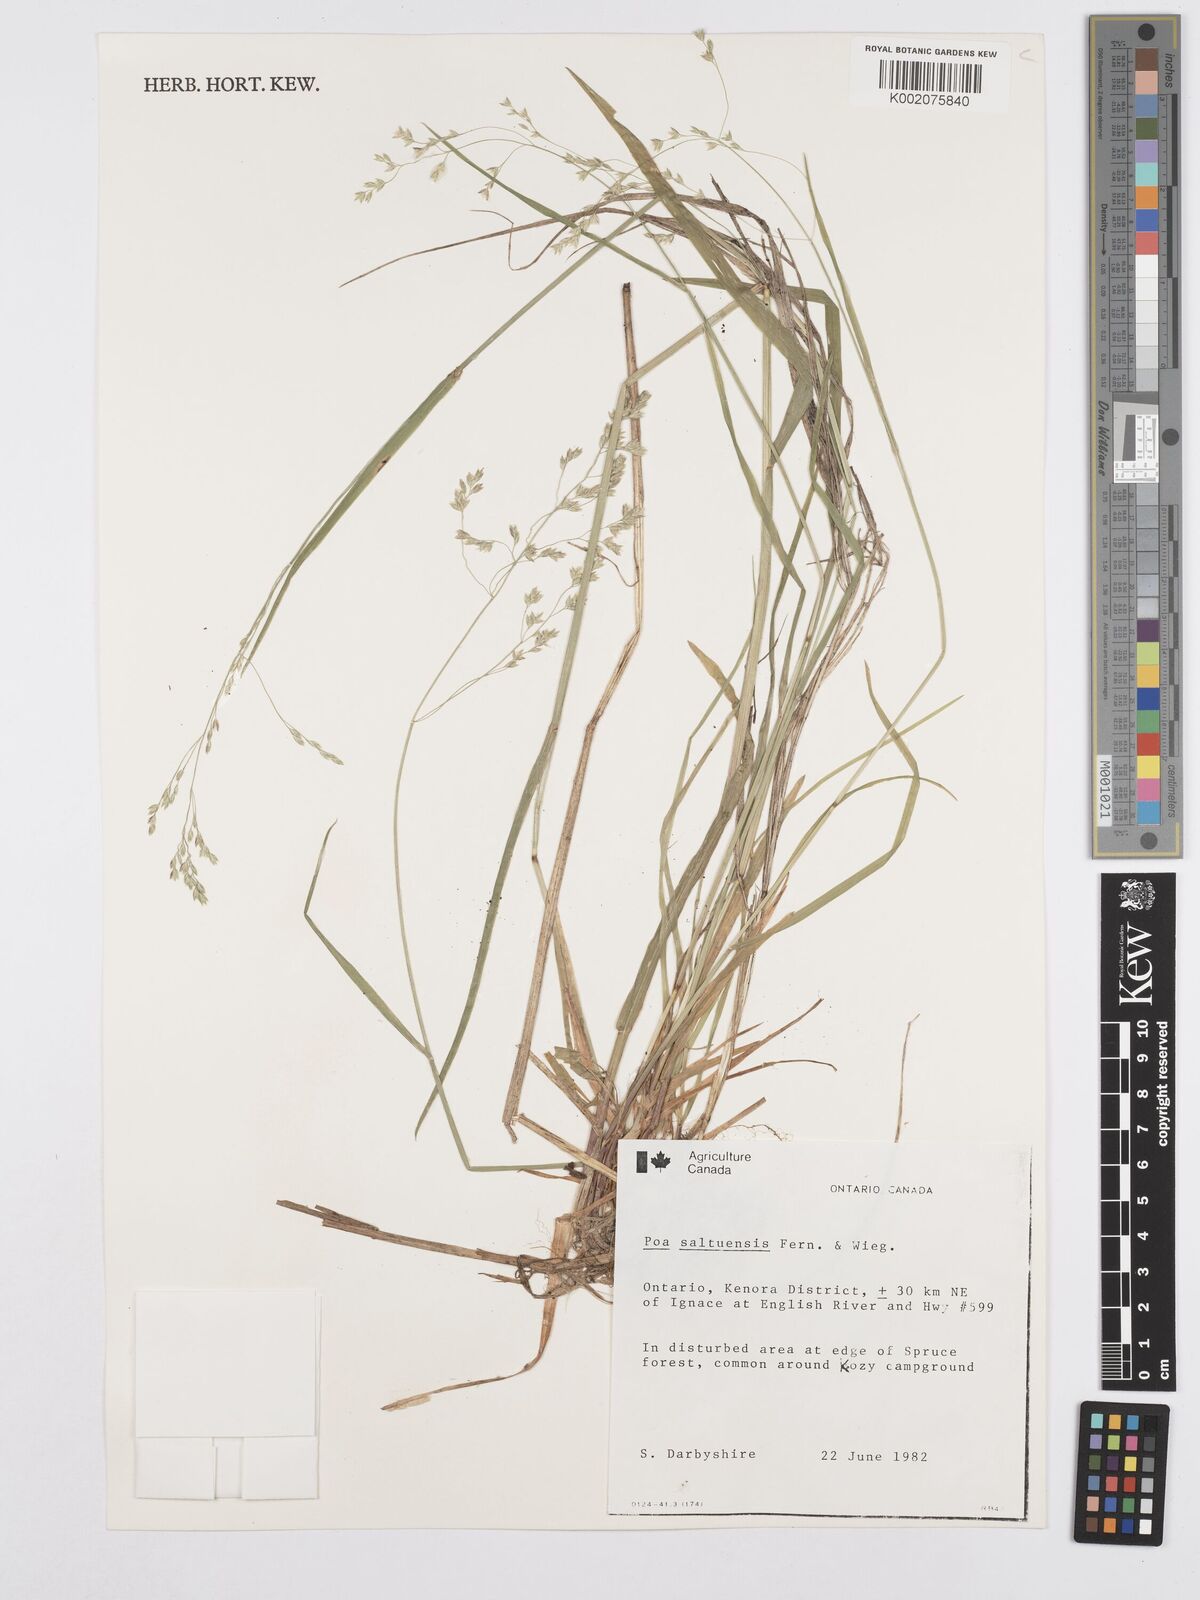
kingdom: Plantae
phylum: Tracheophyta
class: Liliopsida
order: Poales
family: Poaceae
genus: Poa
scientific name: Poa saltuensis
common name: Bushy pasture speargrass
